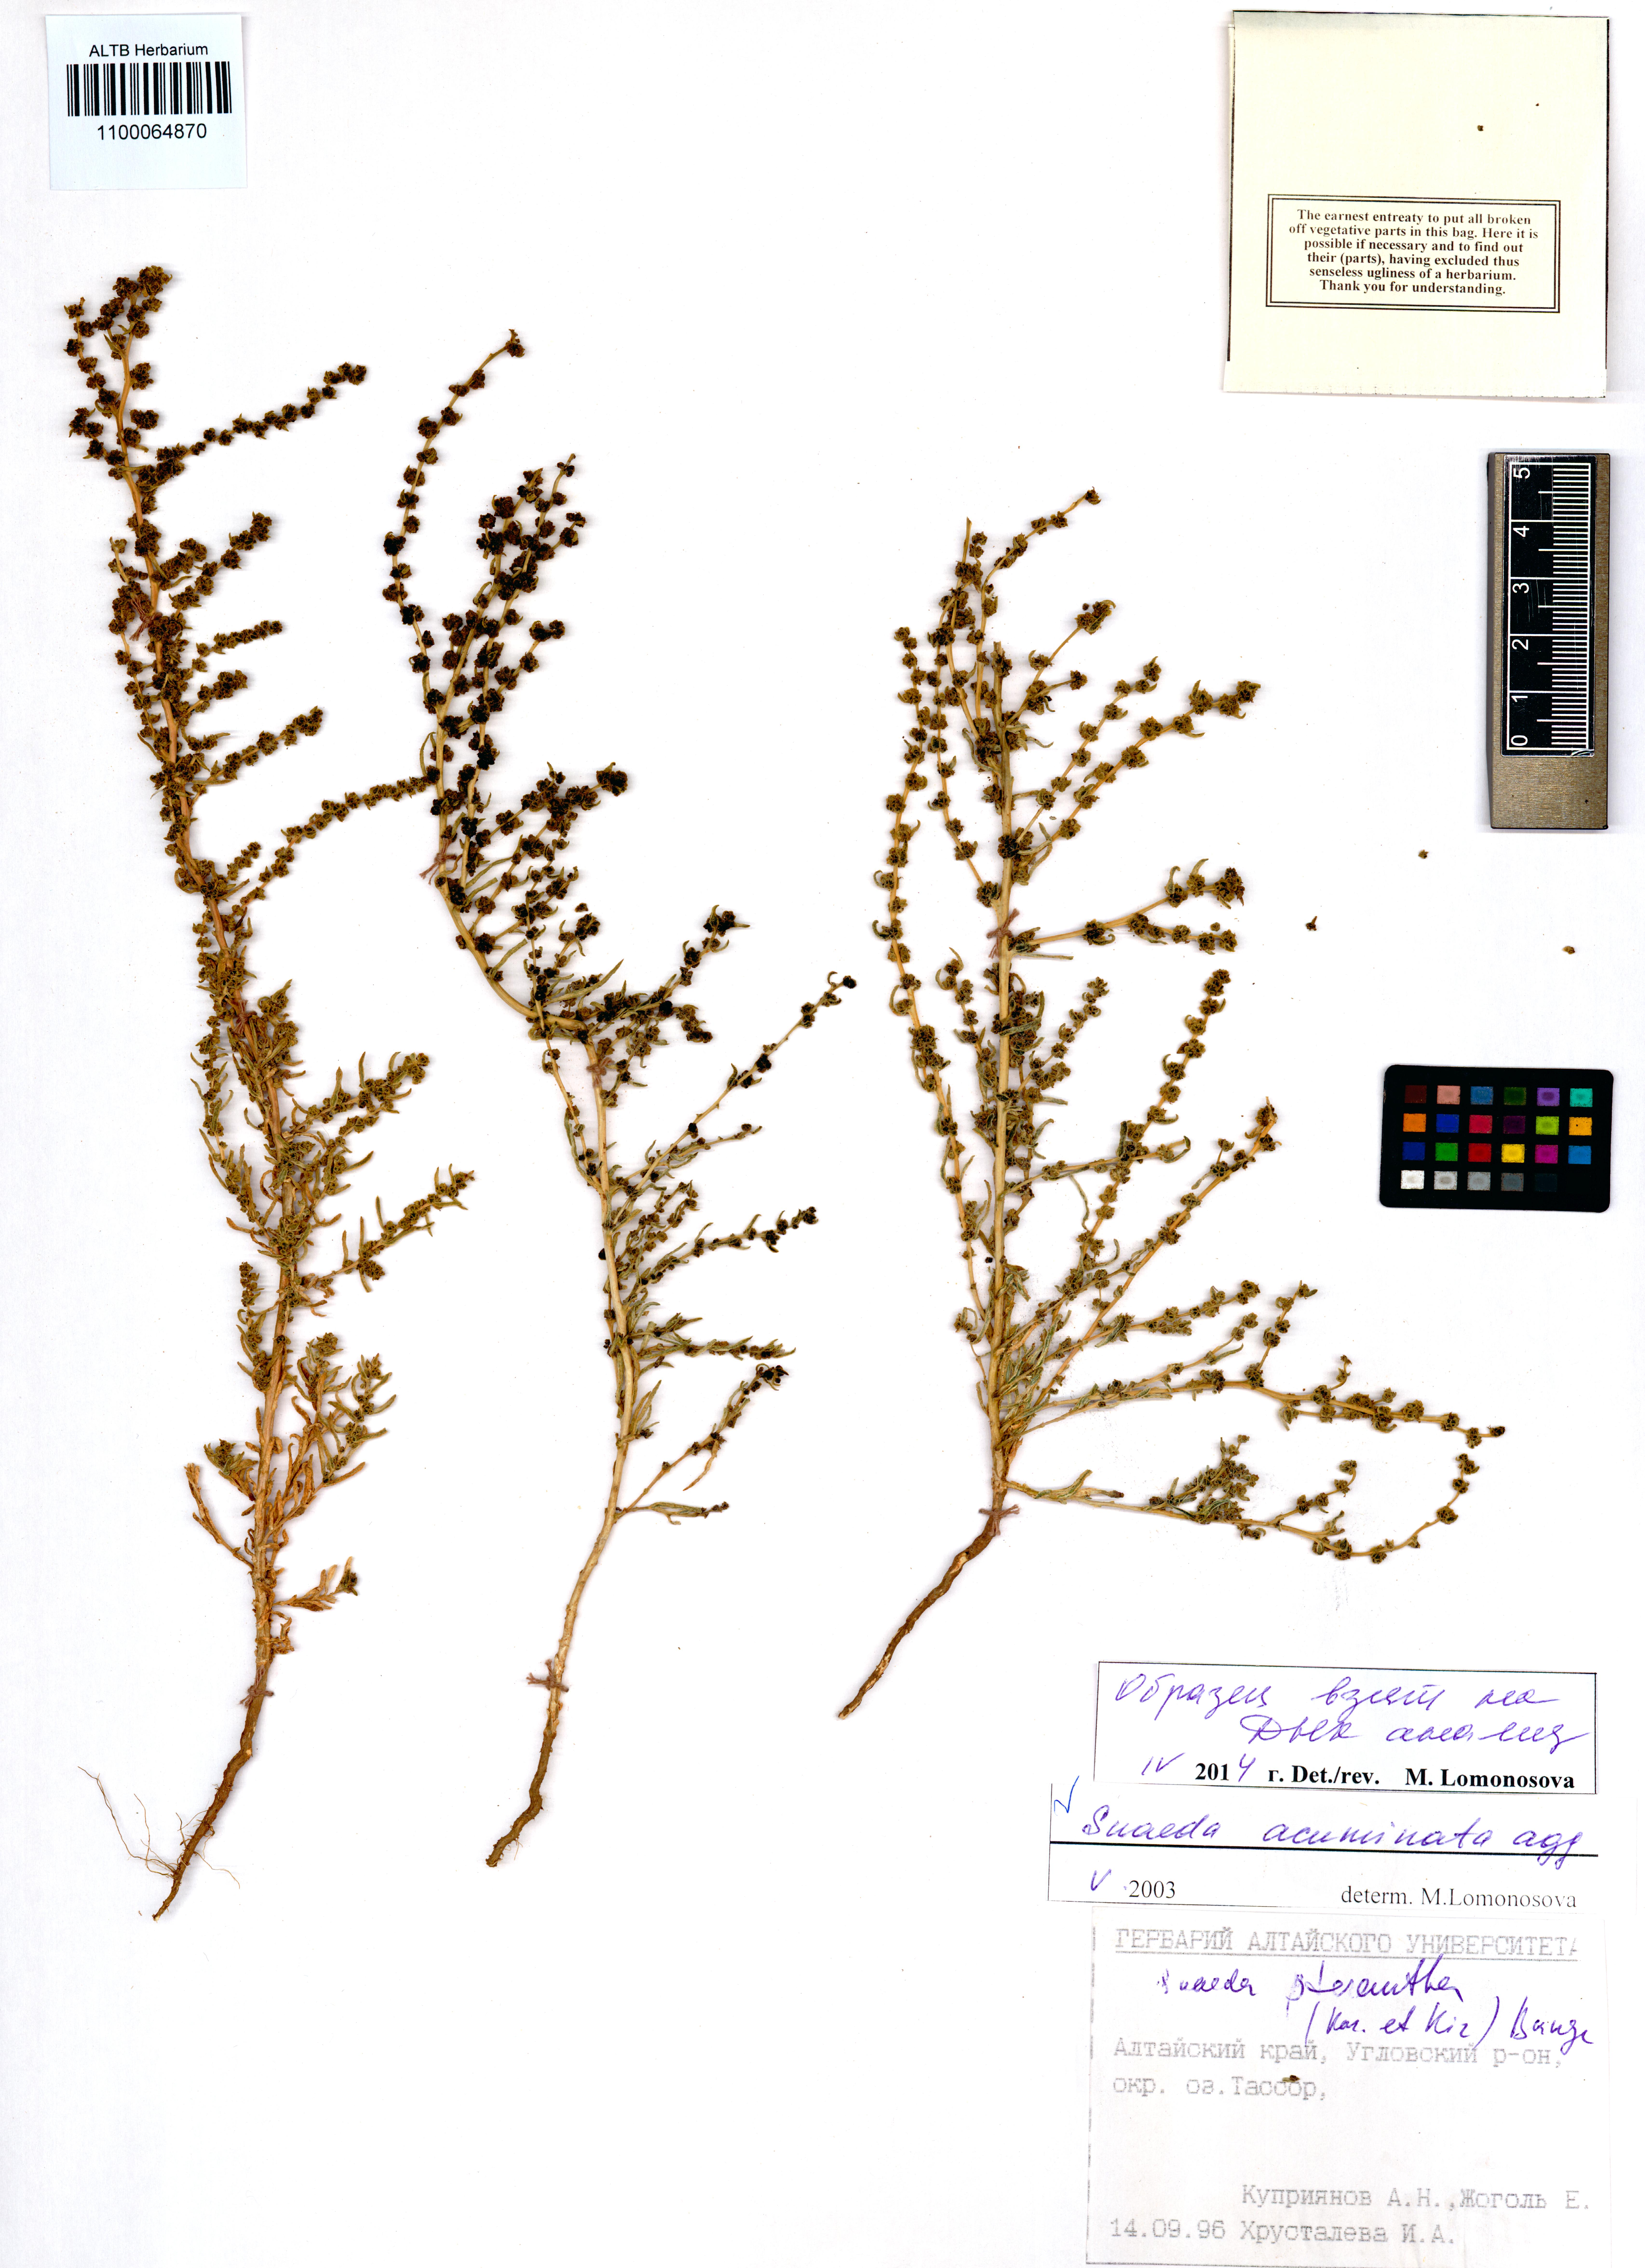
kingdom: Plantae
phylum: Tracheophyta
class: Magnoliopsida
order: Caryophyllales
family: Amaranthaceae
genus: Suaeda
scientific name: Suaeda acuminata
